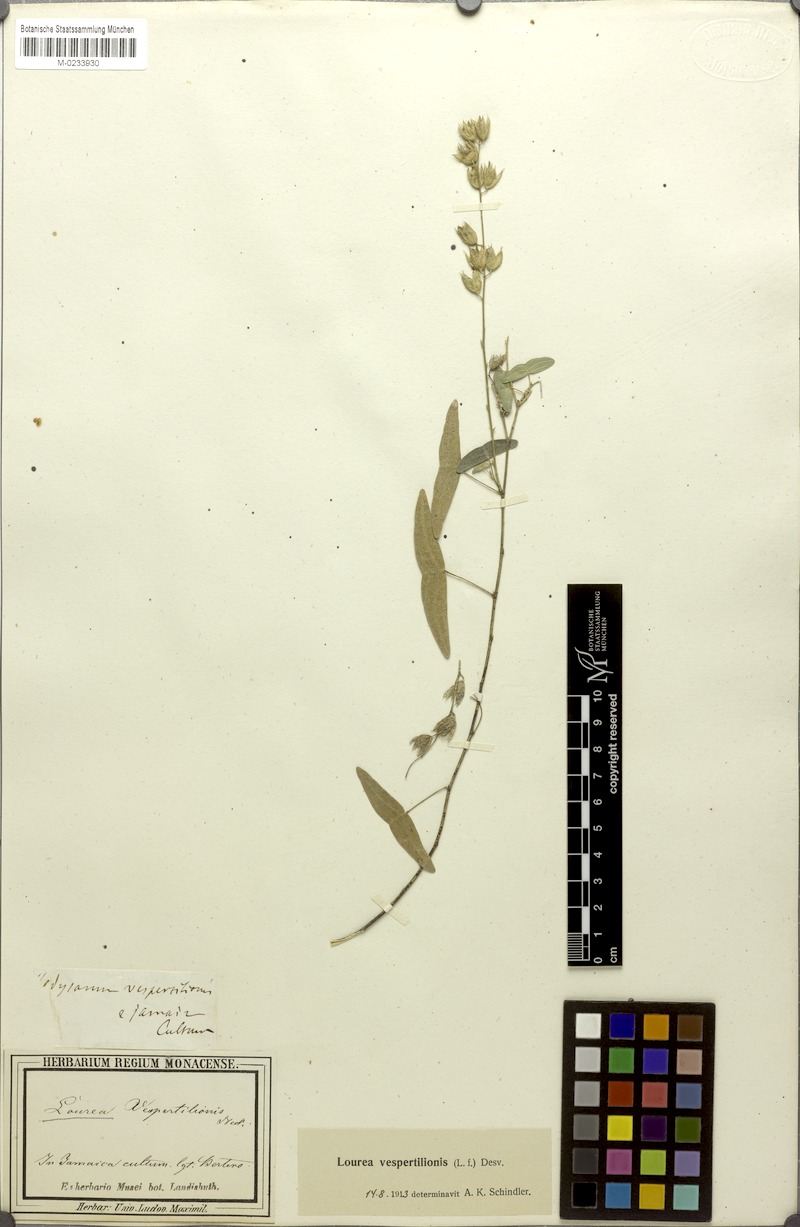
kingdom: Plantae
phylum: Tracheophyta
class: Magnoliopsida
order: Fabales
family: Fabaceae
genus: Christia
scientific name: Christia vespertilionis
